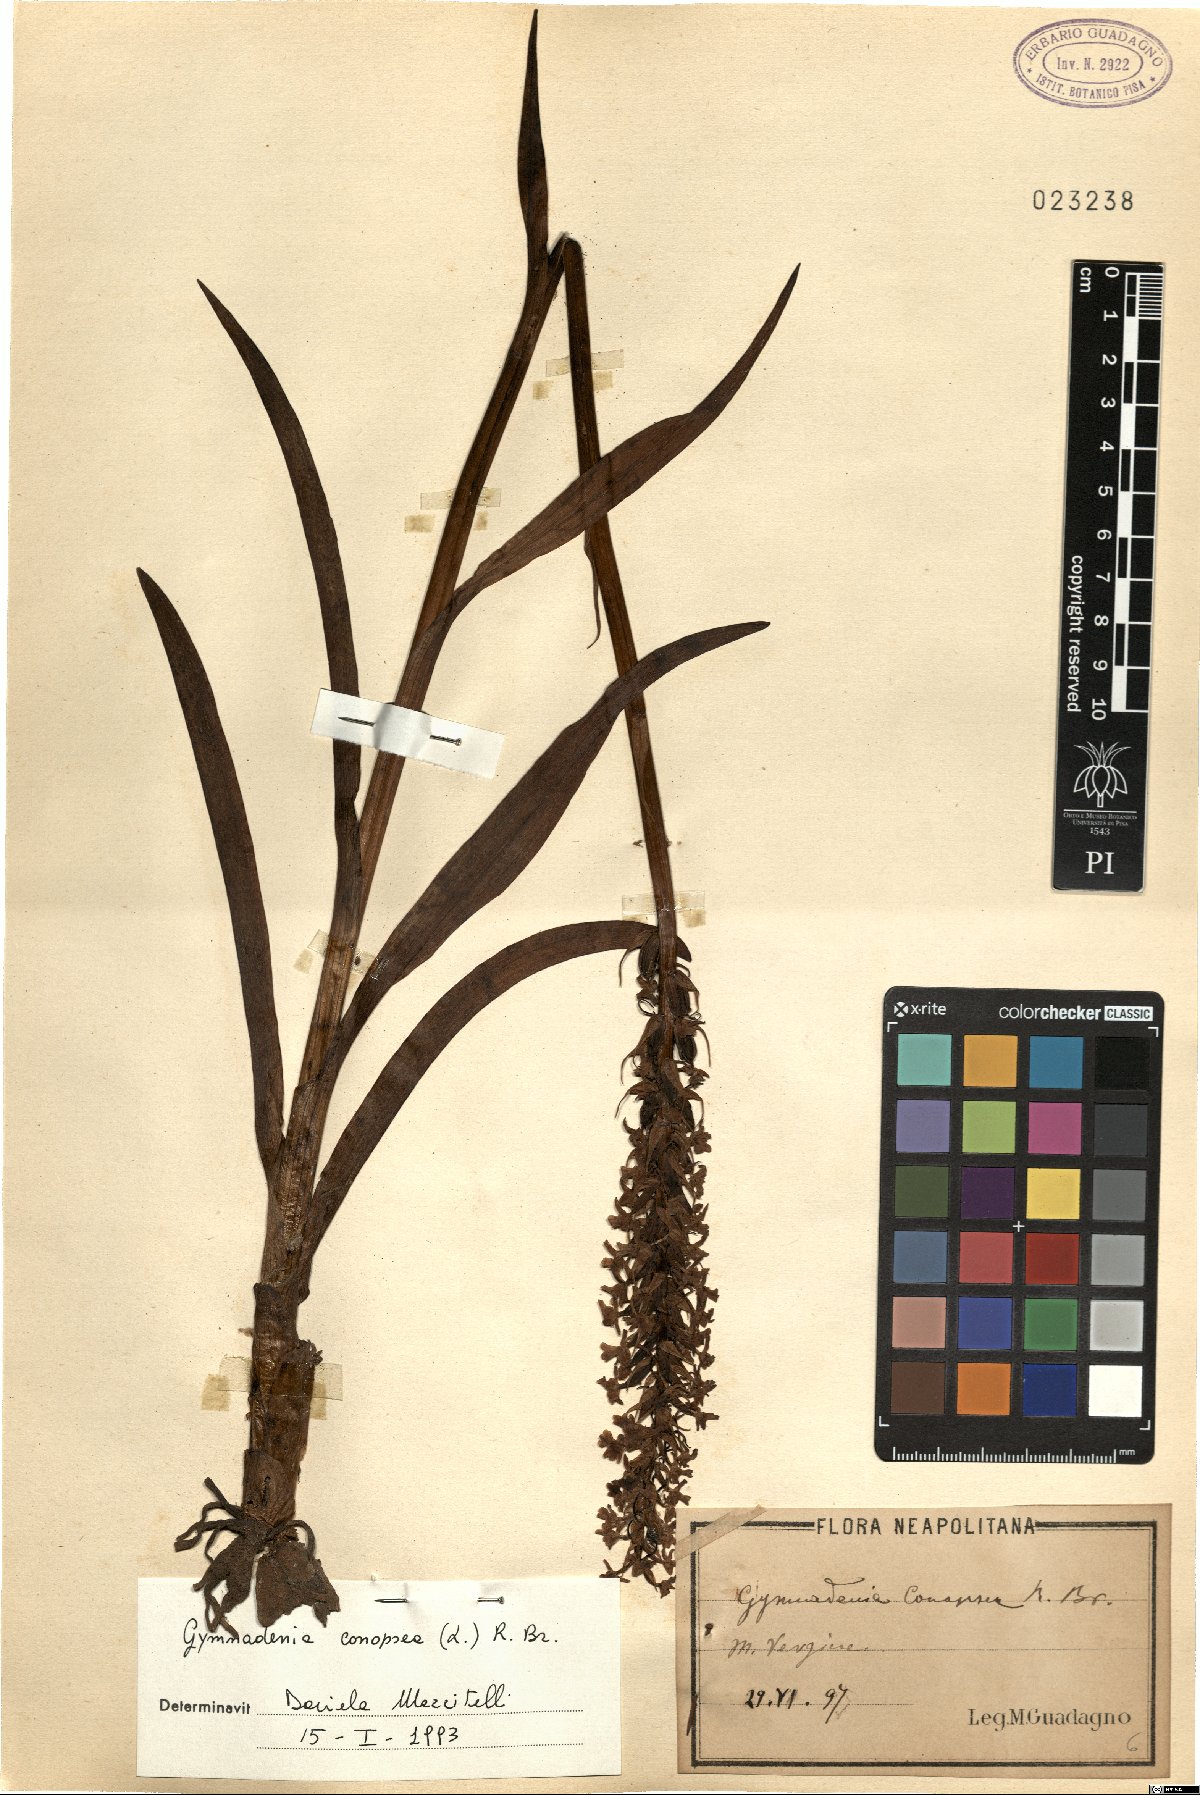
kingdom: Plantae
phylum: Tracheophyta
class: Liliopsida
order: Asparagales
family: Orchidaceae
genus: Gymnadenia
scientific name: Gymnadenia conopsea
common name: Fragrant orchid
